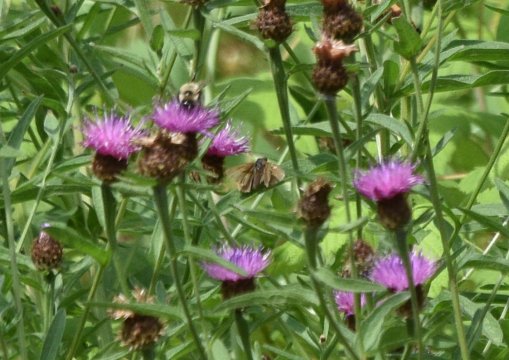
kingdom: Animalia
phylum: Arthropoda
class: Insecta
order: Lepidoptera
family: Hesperiidae
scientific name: Hesperiidae
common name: Skippers
